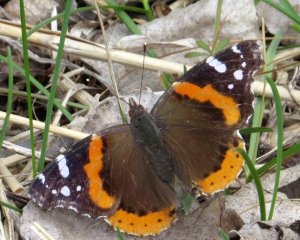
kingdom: Animalia
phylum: Arthropoda
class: Insecta
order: Lepidoptera
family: Nymphalidae
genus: Vanessa
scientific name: Vanessa atalanta
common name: Red Admiral
